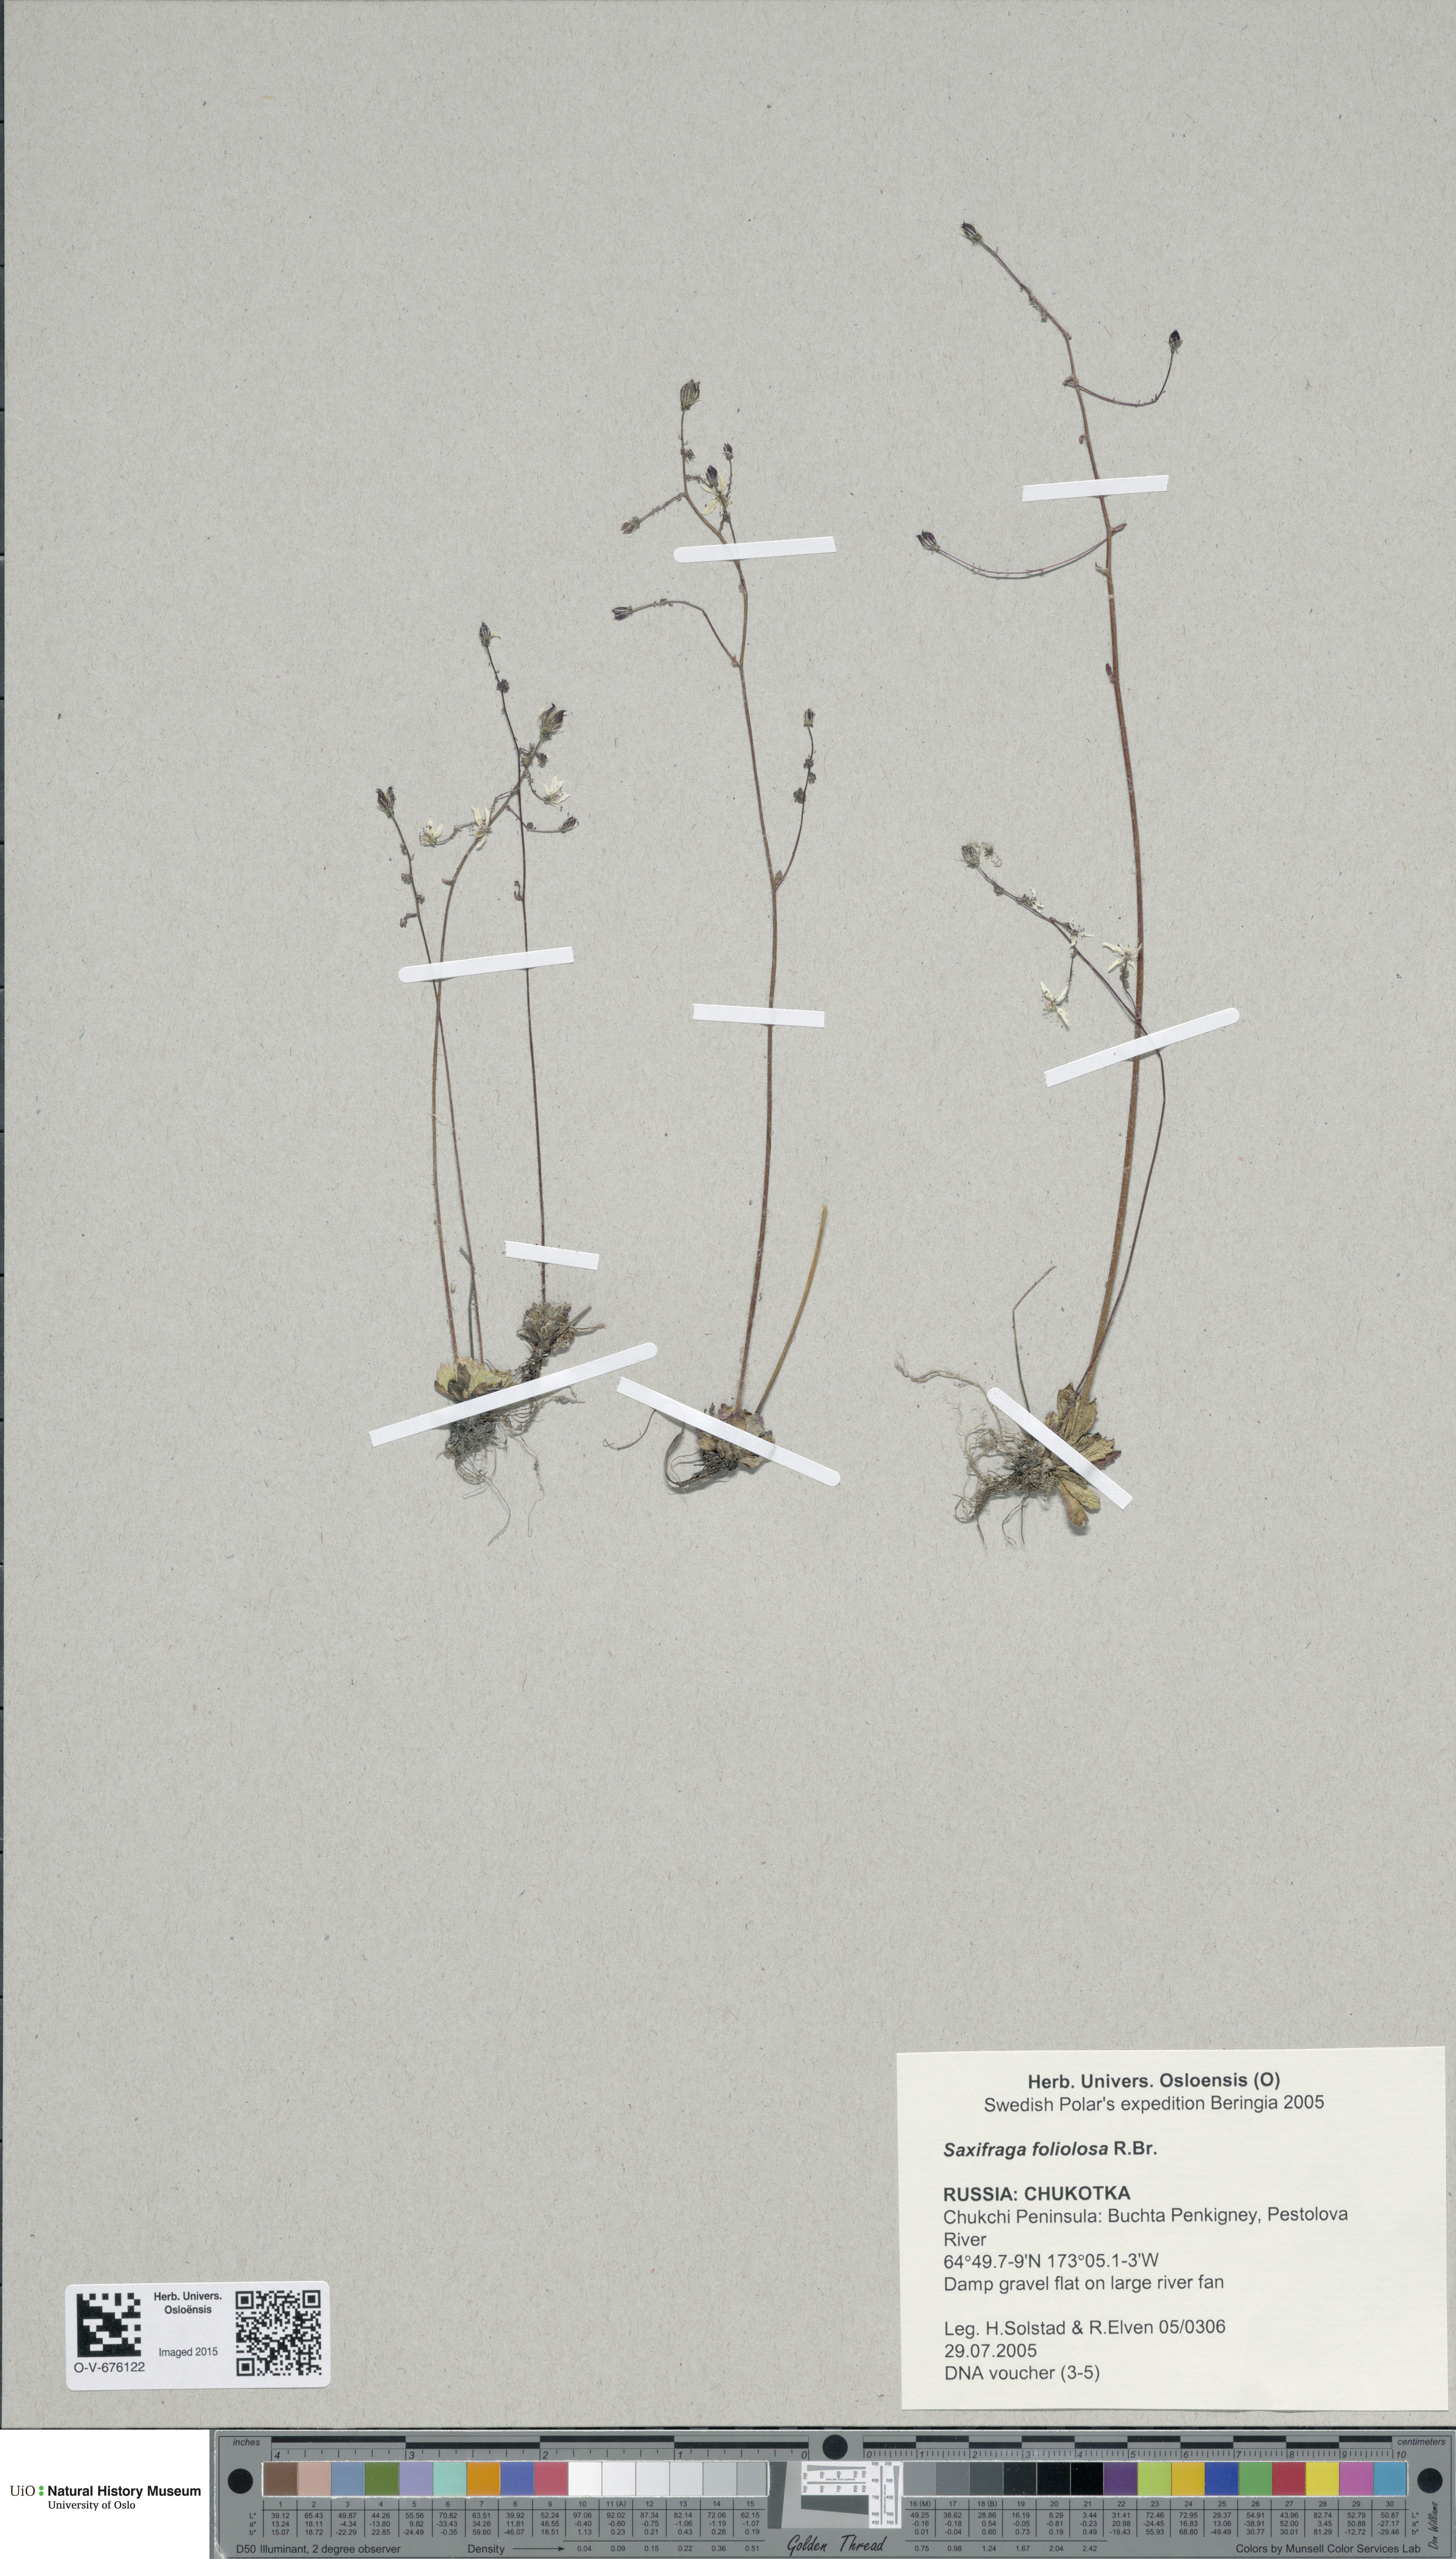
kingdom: Plantae
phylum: Tracheophyta
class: Magnoliopsida
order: Saxifragales
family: Saxifragaceae
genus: Micranthes
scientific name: Micranthes foliolosa
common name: Leafystem saxifrage
